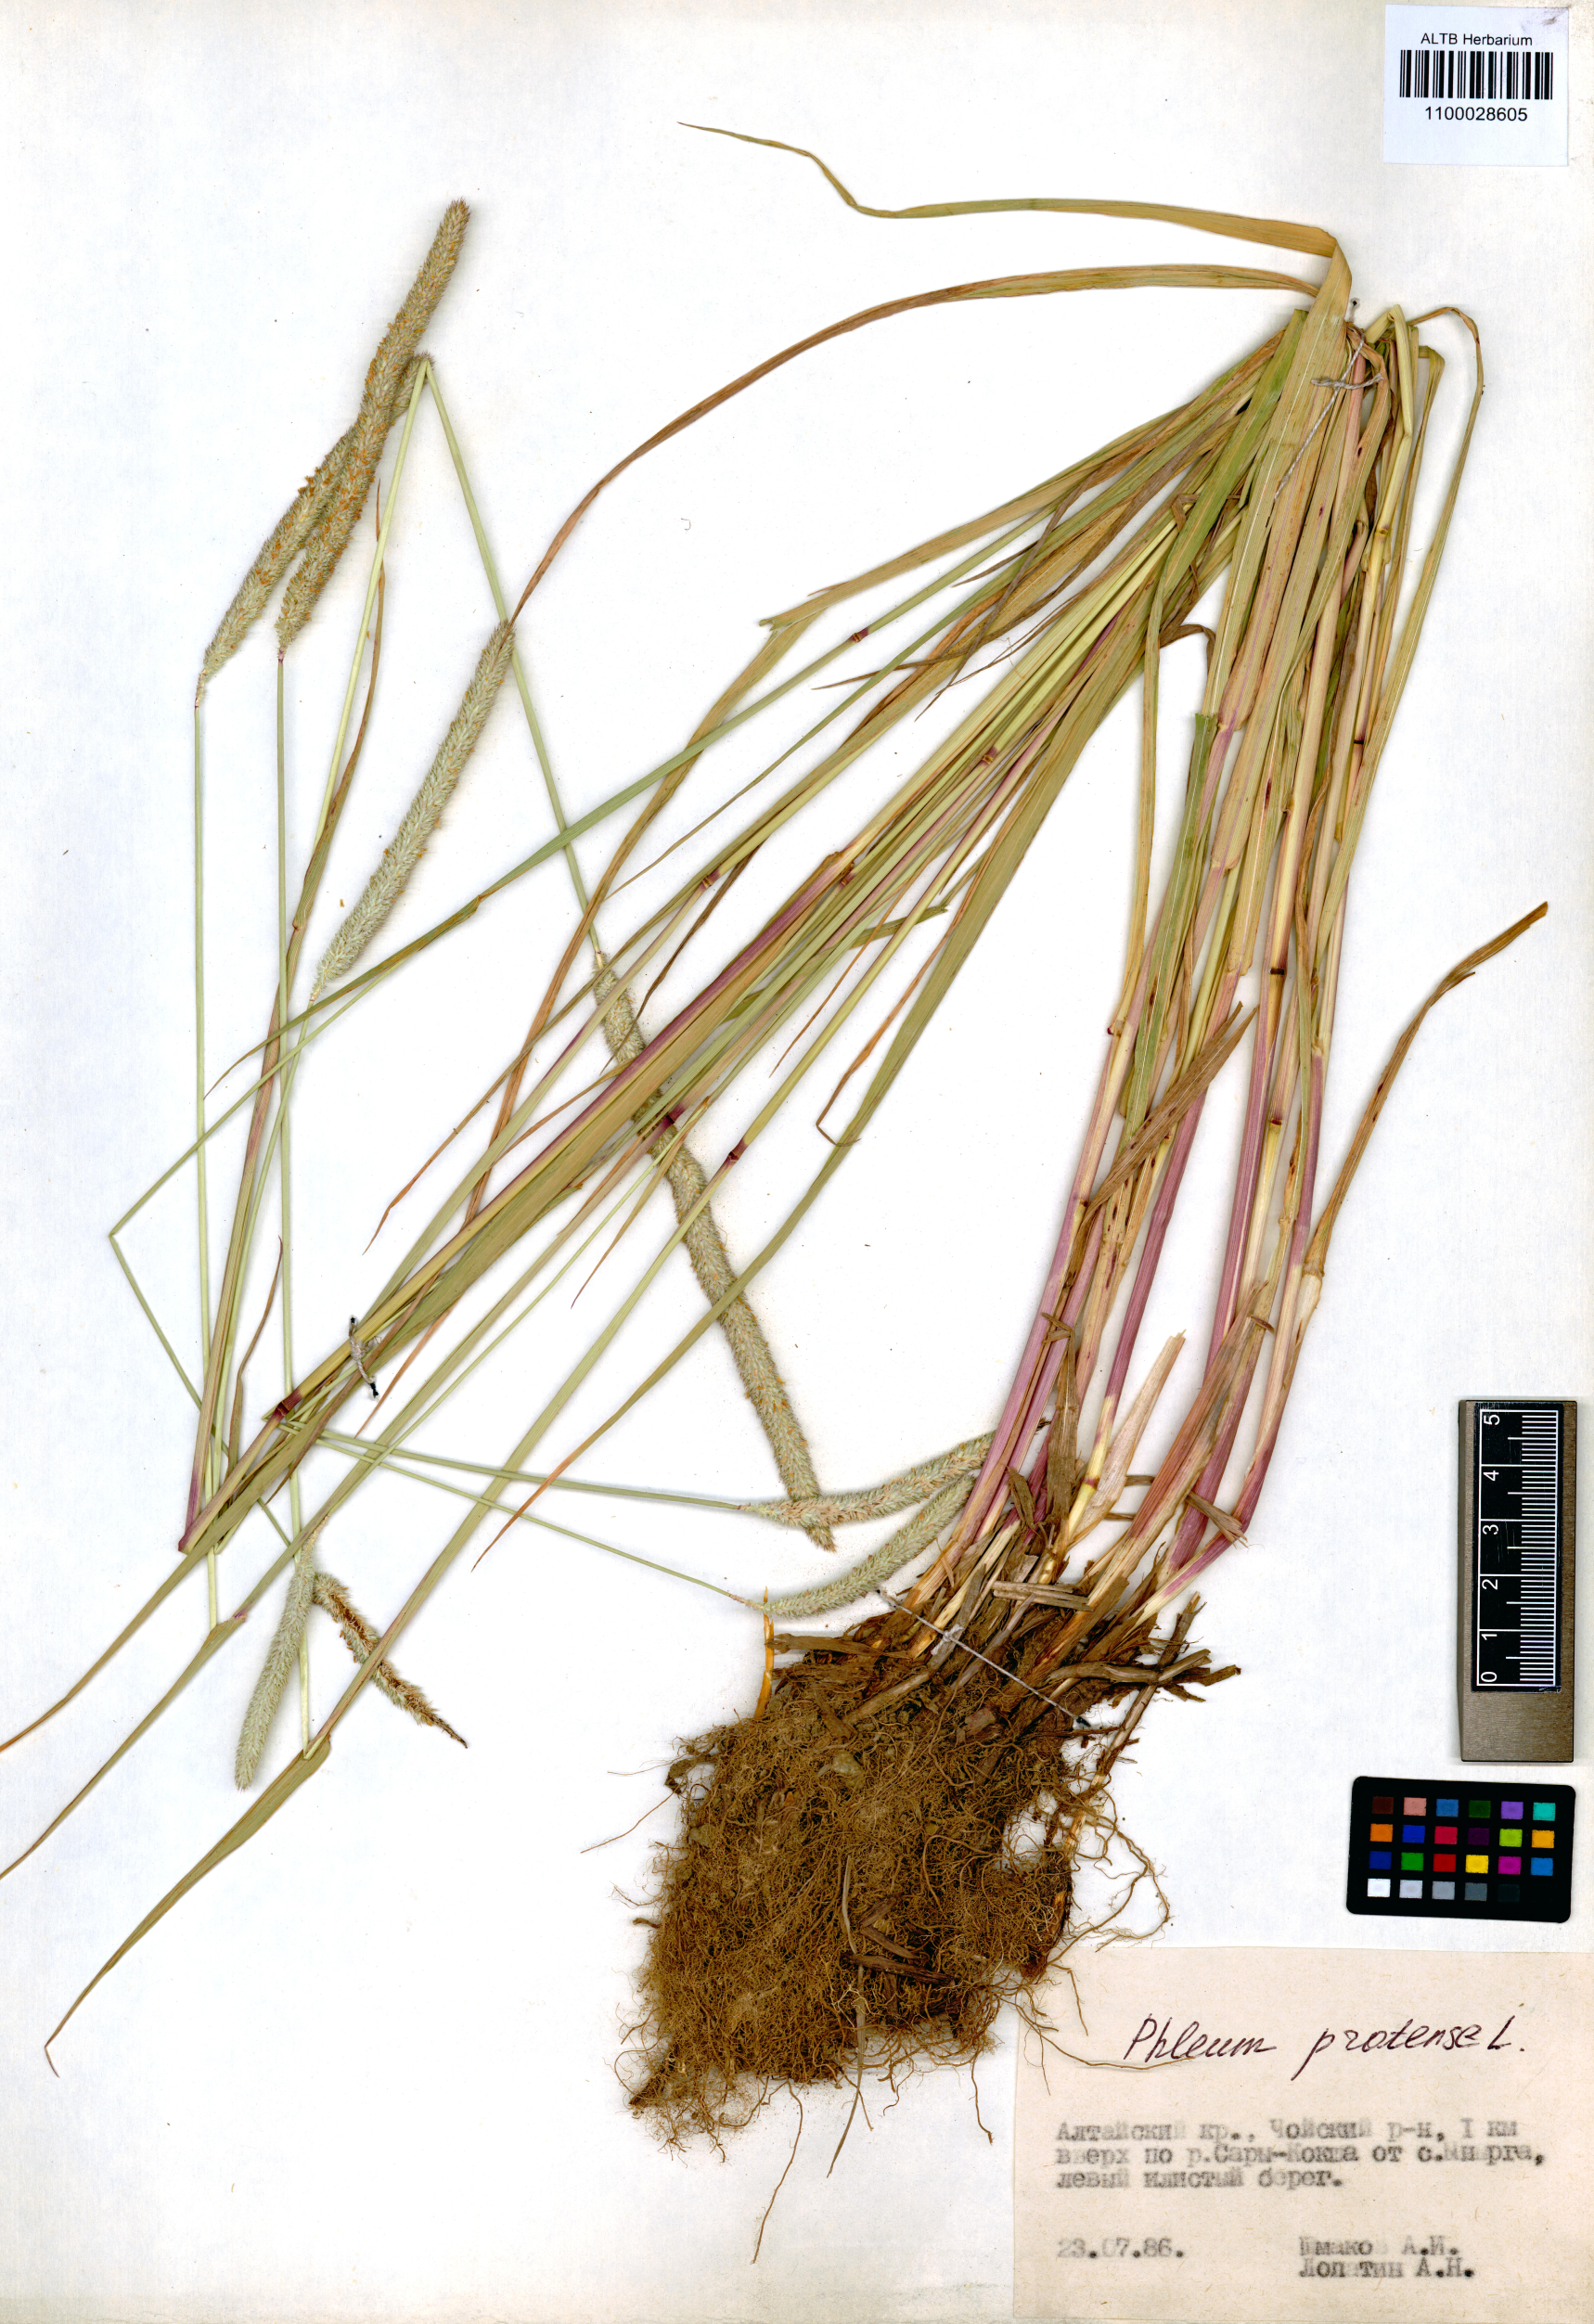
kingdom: Plantae
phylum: Tracheophyta
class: Liliopsida
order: Poales
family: Poaceae
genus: Phleum
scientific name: Phleum pratense
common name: Timothy grass
